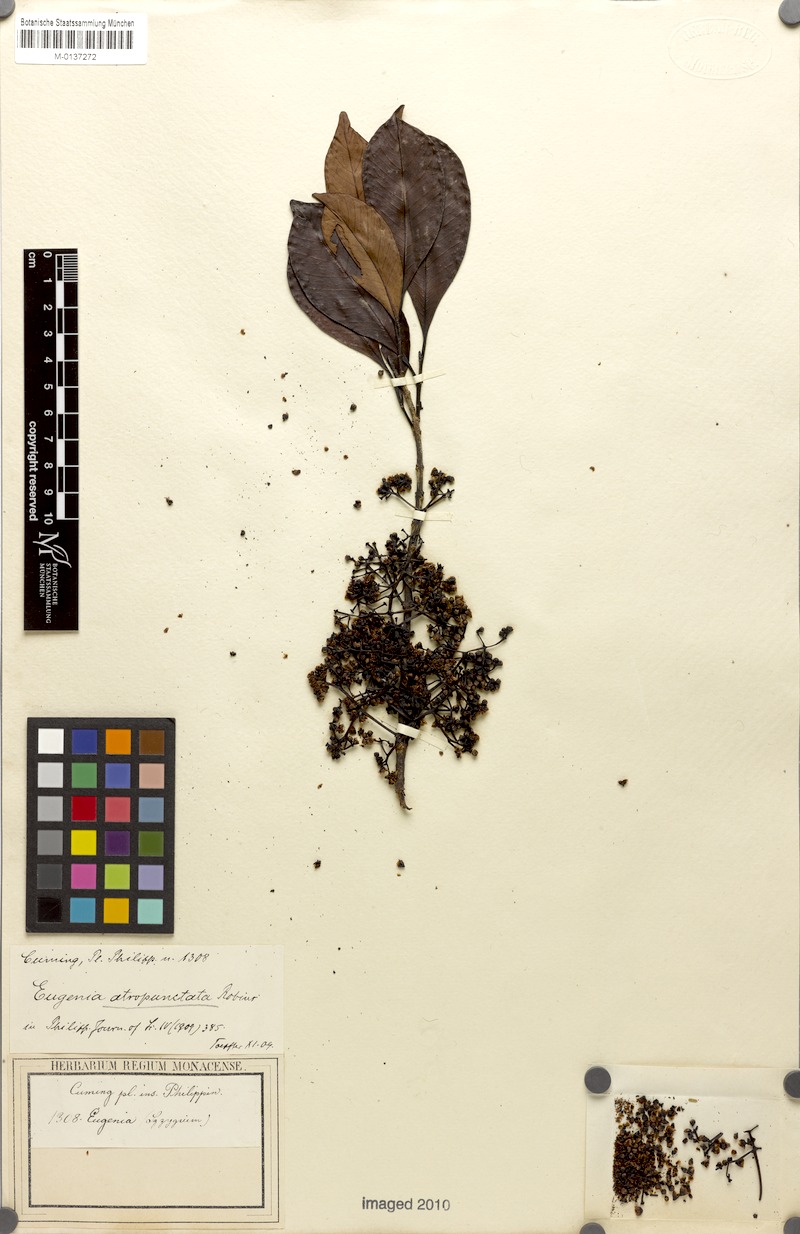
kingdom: Plantae
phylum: Tracheophyta
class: Magnoliopsida
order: Myrtales
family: Myrtaceae
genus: Syzygium
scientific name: Syzygium polyanthum
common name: Indonesian bayleaf
